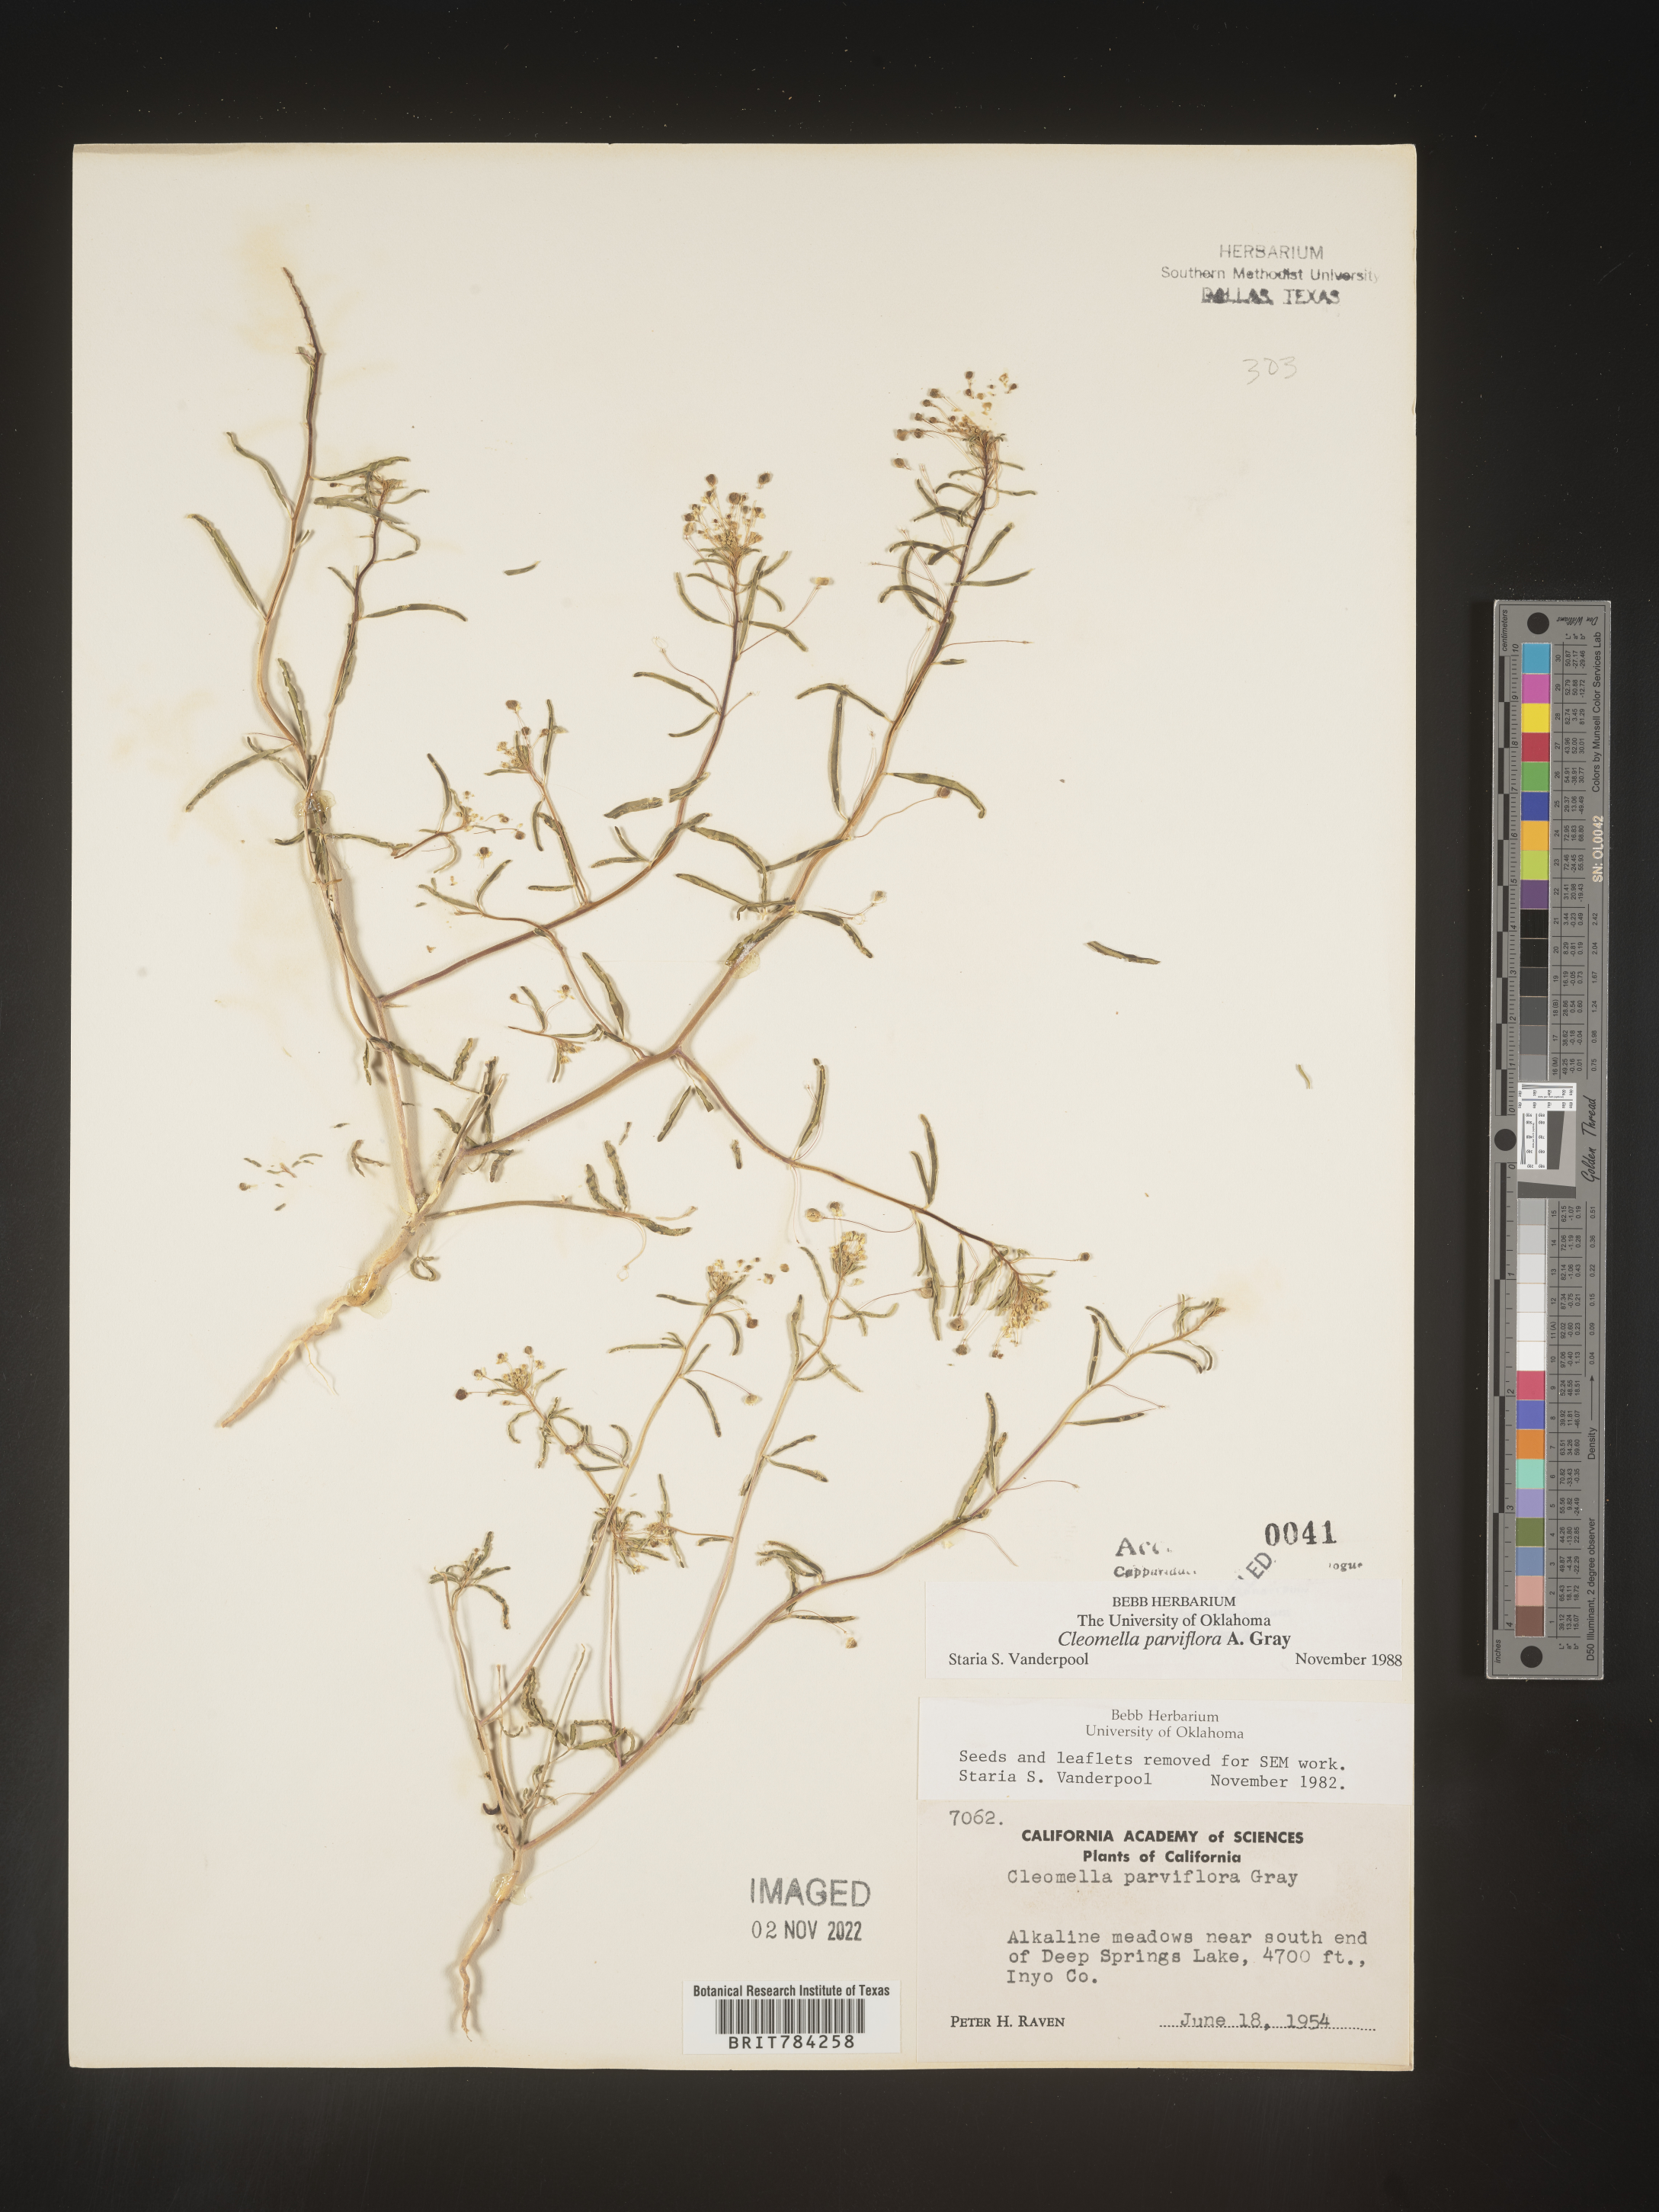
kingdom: Plantae
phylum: Tracheophyta
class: Magnoliopsida
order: Brassicales
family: Cleomaceae
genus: Cleomella
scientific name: Cleomella
